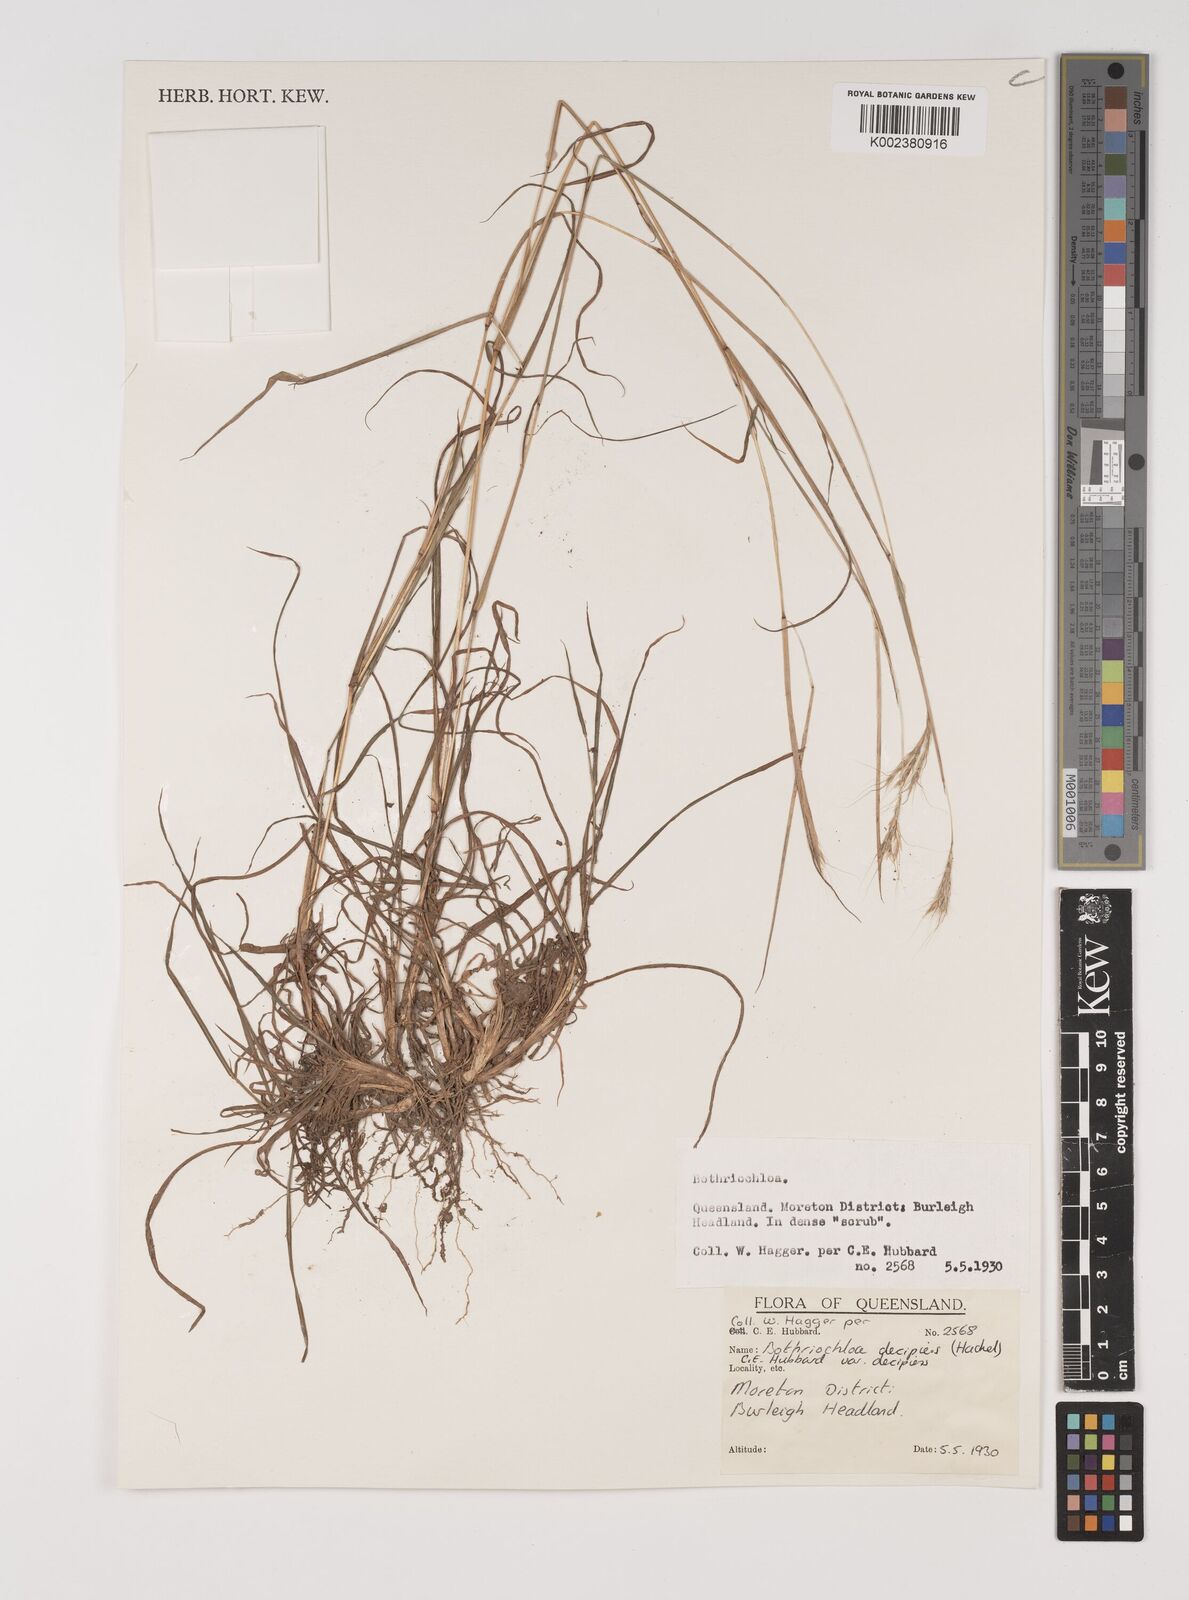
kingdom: Plantae
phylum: Tracheophyta
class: Liliopsida
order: Poales
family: Poaceae
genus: Bothriochloa
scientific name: Bothriochloa decipiens
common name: Pitted-bluegrass
